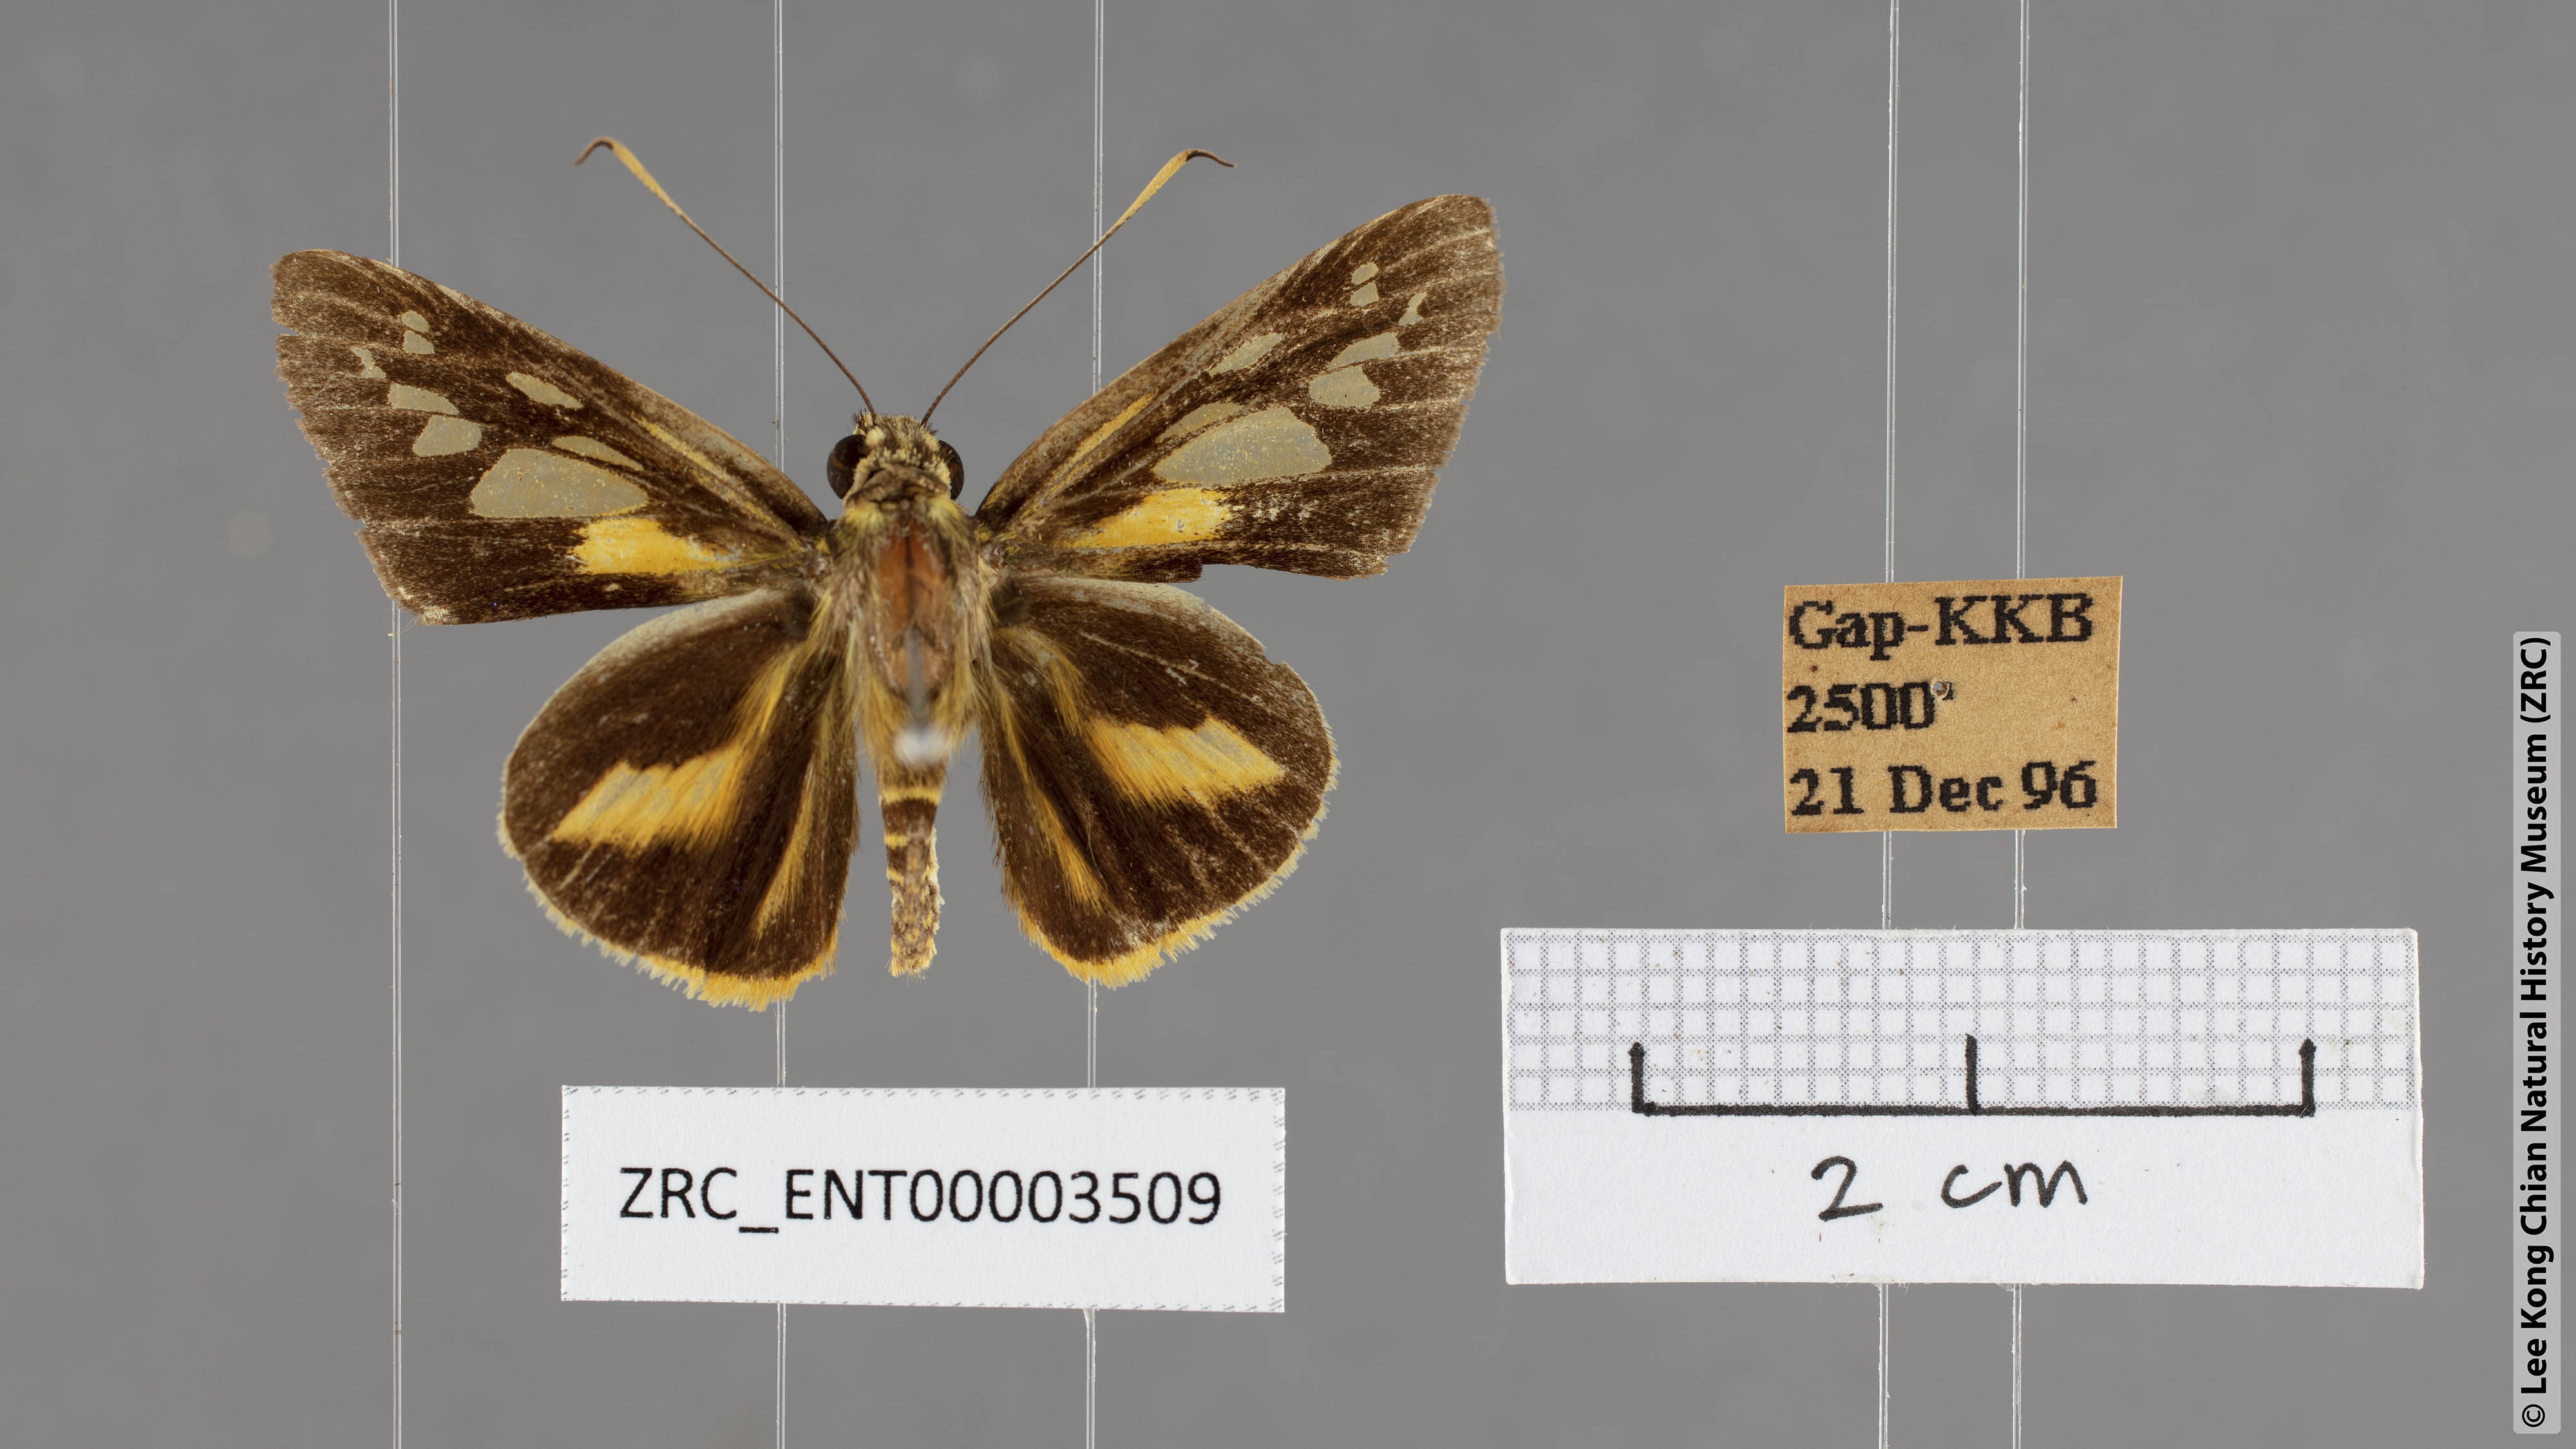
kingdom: Animalia
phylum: Arthropoda
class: Insecta
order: Lepidoptera
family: Hesperiidae
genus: Pyroneura
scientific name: Pyroneura latoia
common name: Yellow vein lancer
